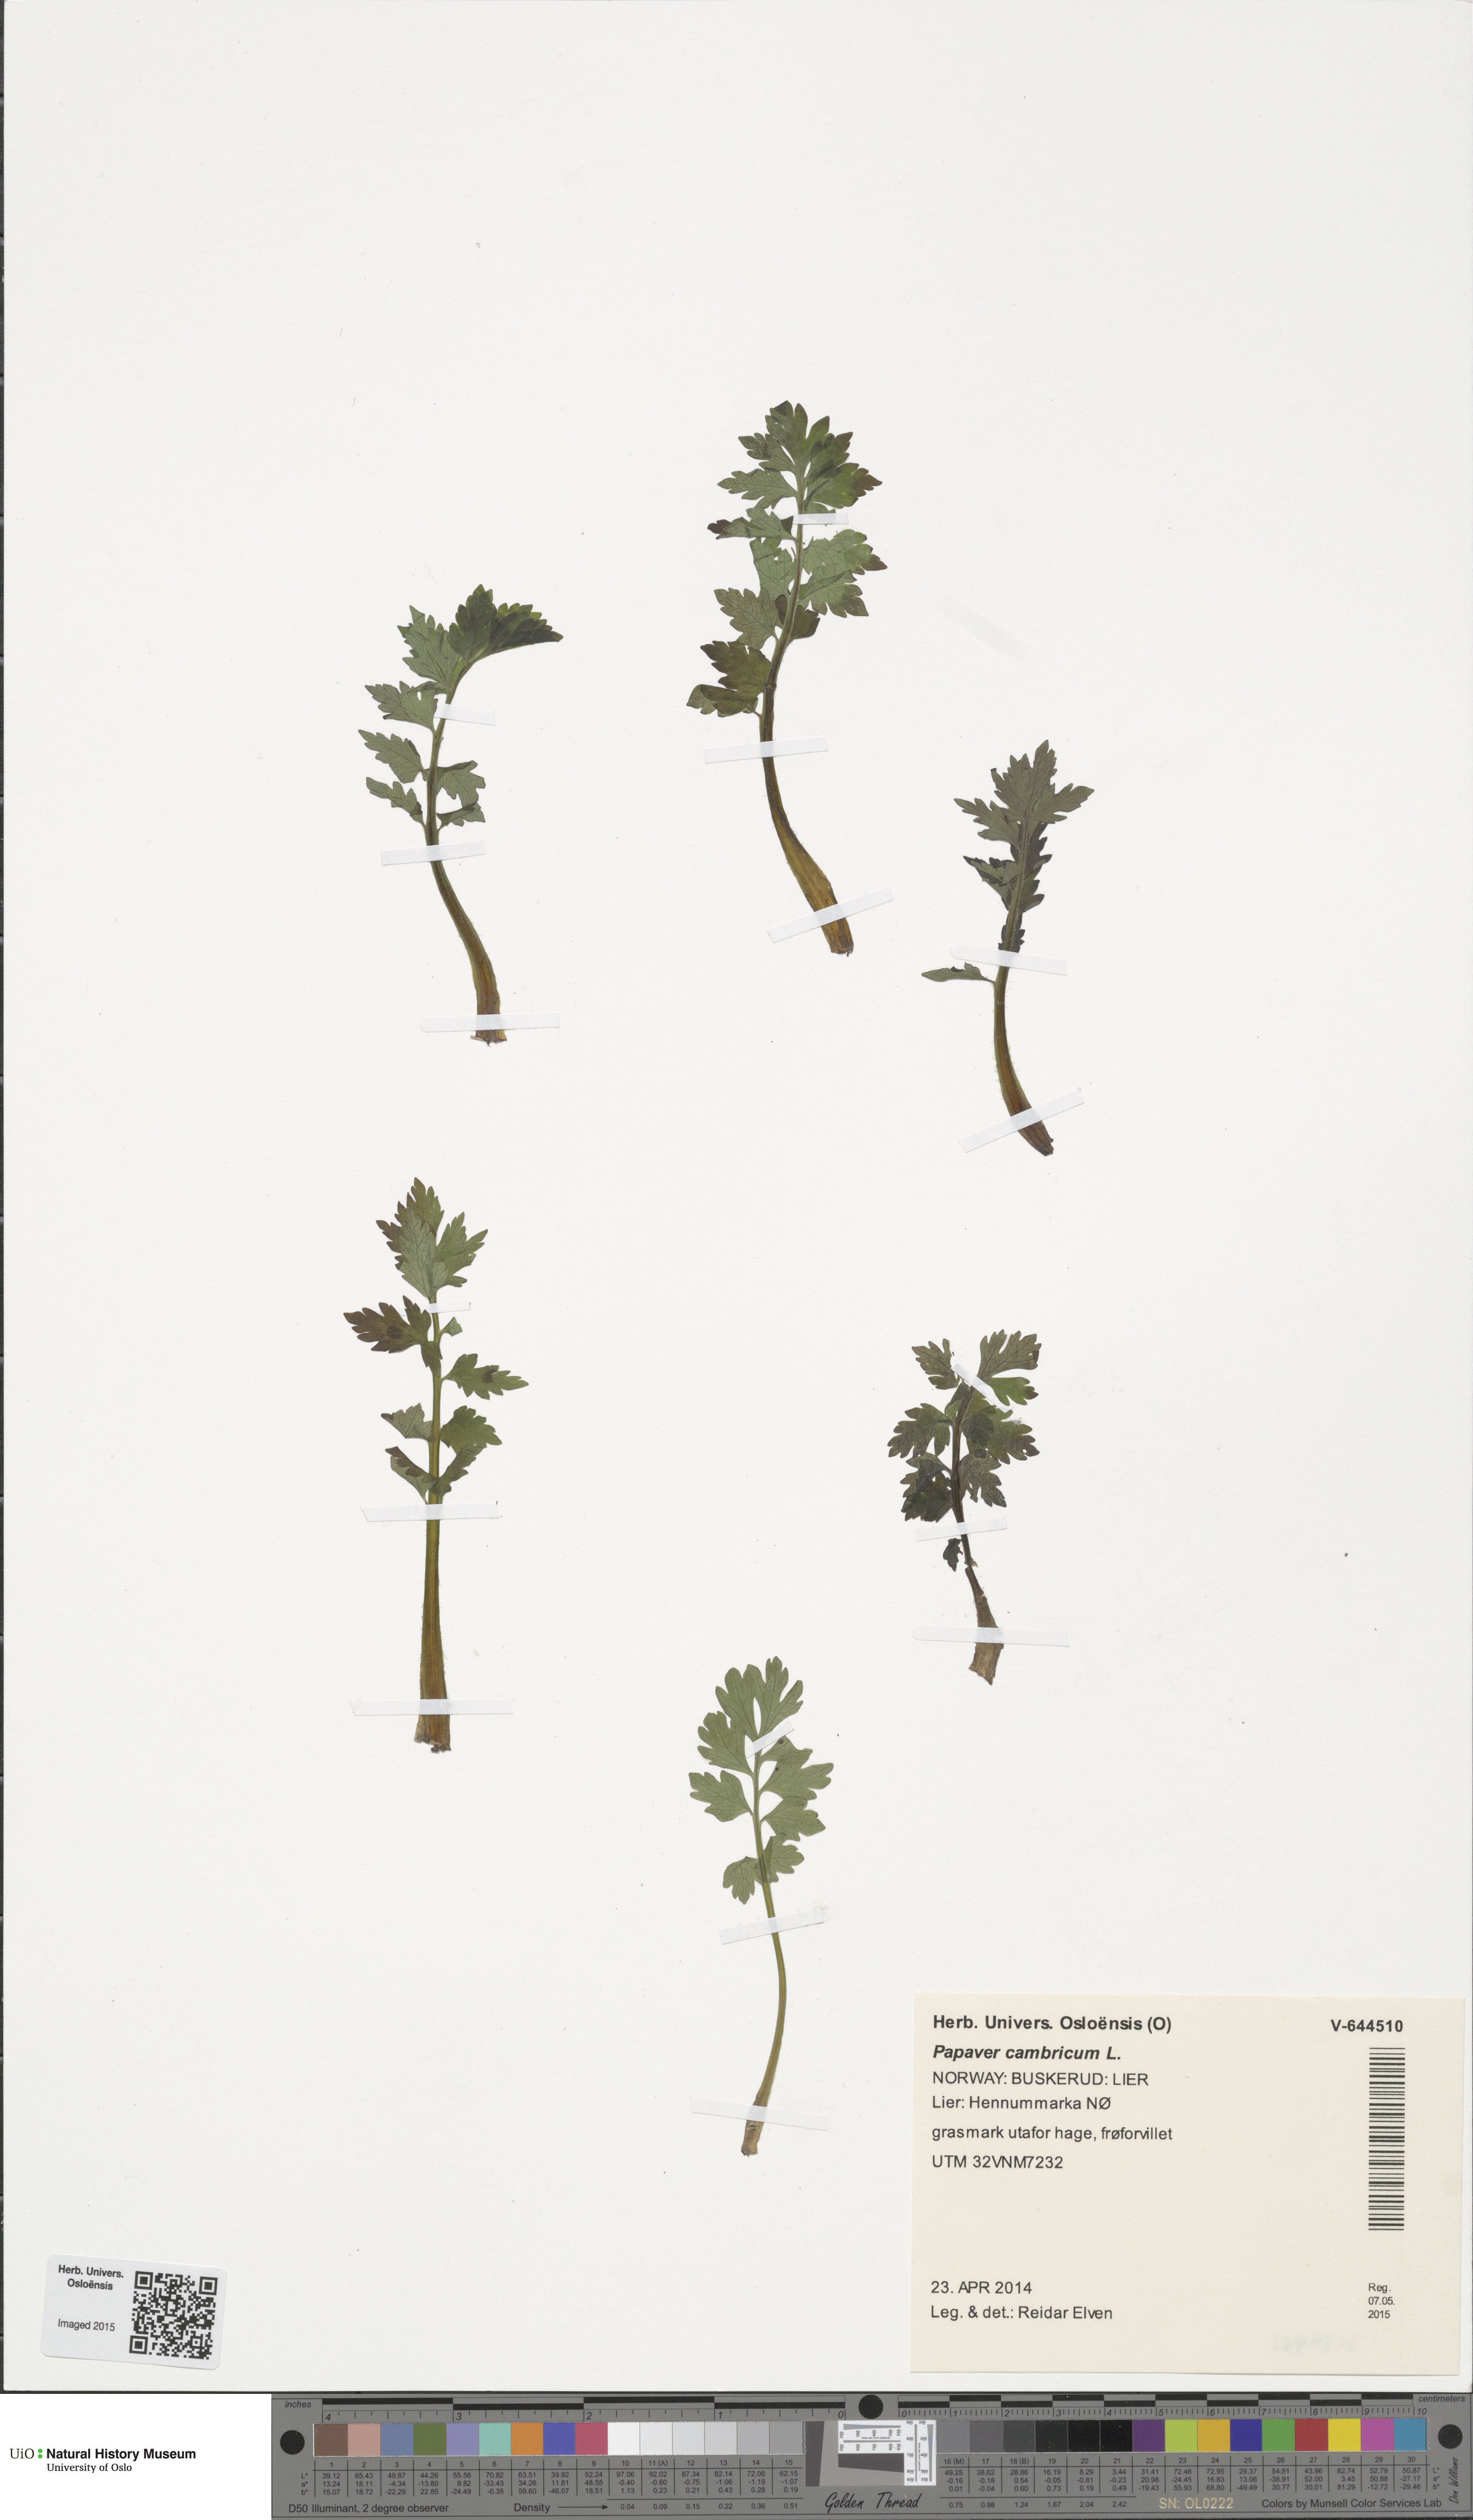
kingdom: Plantae
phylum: Tracheophyta
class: Magnoliopsida
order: Ranunculales
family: Papaveraceae
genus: Papaver
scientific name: Papaver cambricum
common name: Poppy
